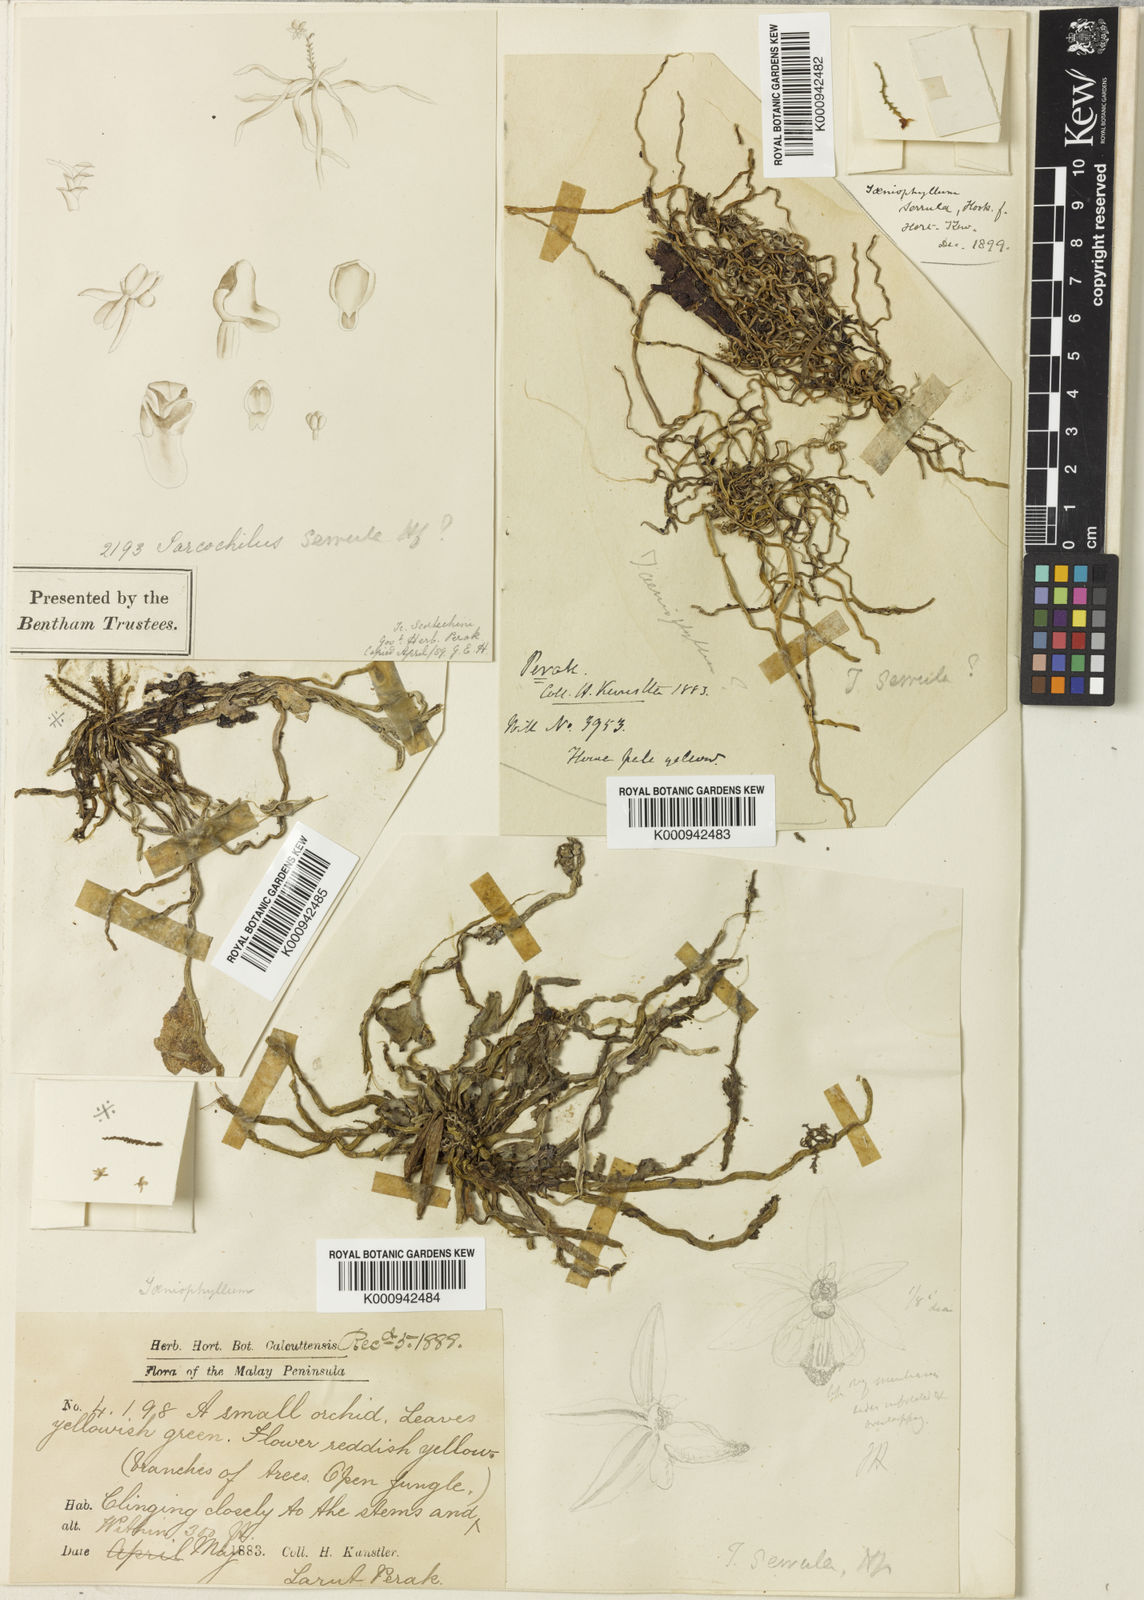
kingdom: Plantae
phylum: Tracheophyta
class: Liliopsida
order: Asparagales
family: Orchidaceae
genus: Taeniophyllum
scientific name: Taeniophyllum pusillum
